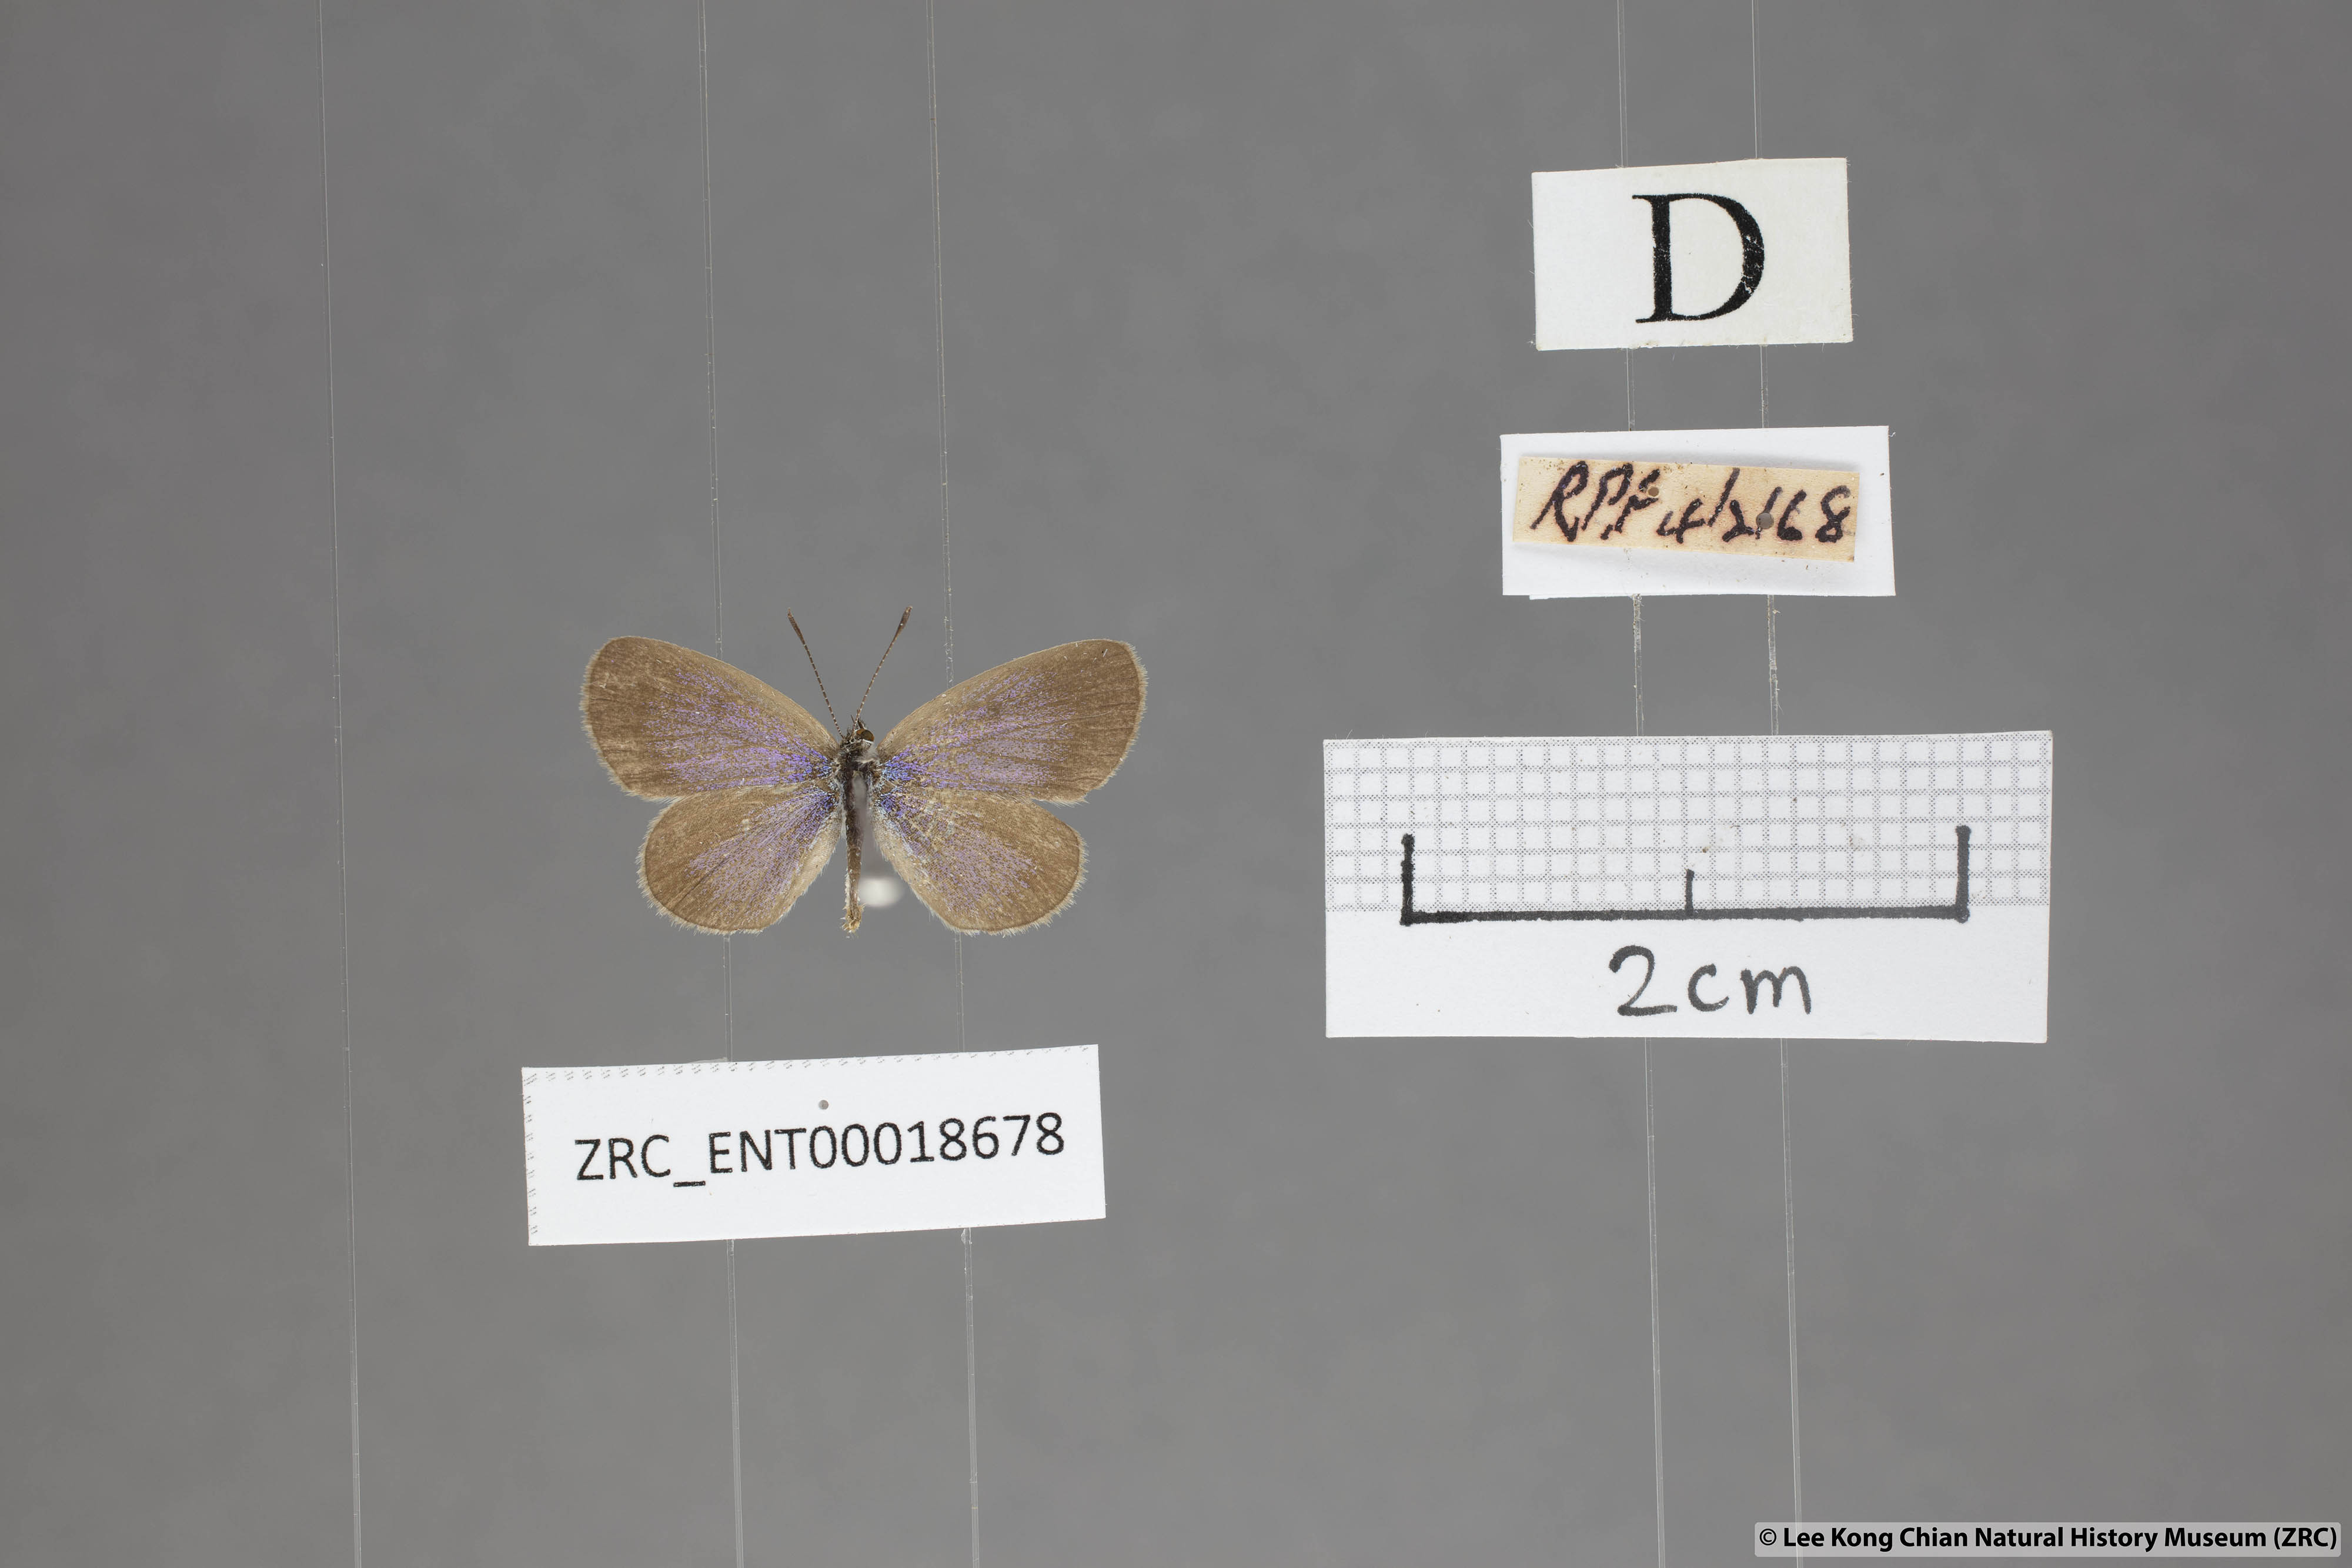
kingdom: Animalia
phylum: Arthropoda
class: Insecta
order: Lepidoptera
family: Lycaenidae
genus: Zizina
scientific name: Zizina otis
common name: Lesser grass blue
